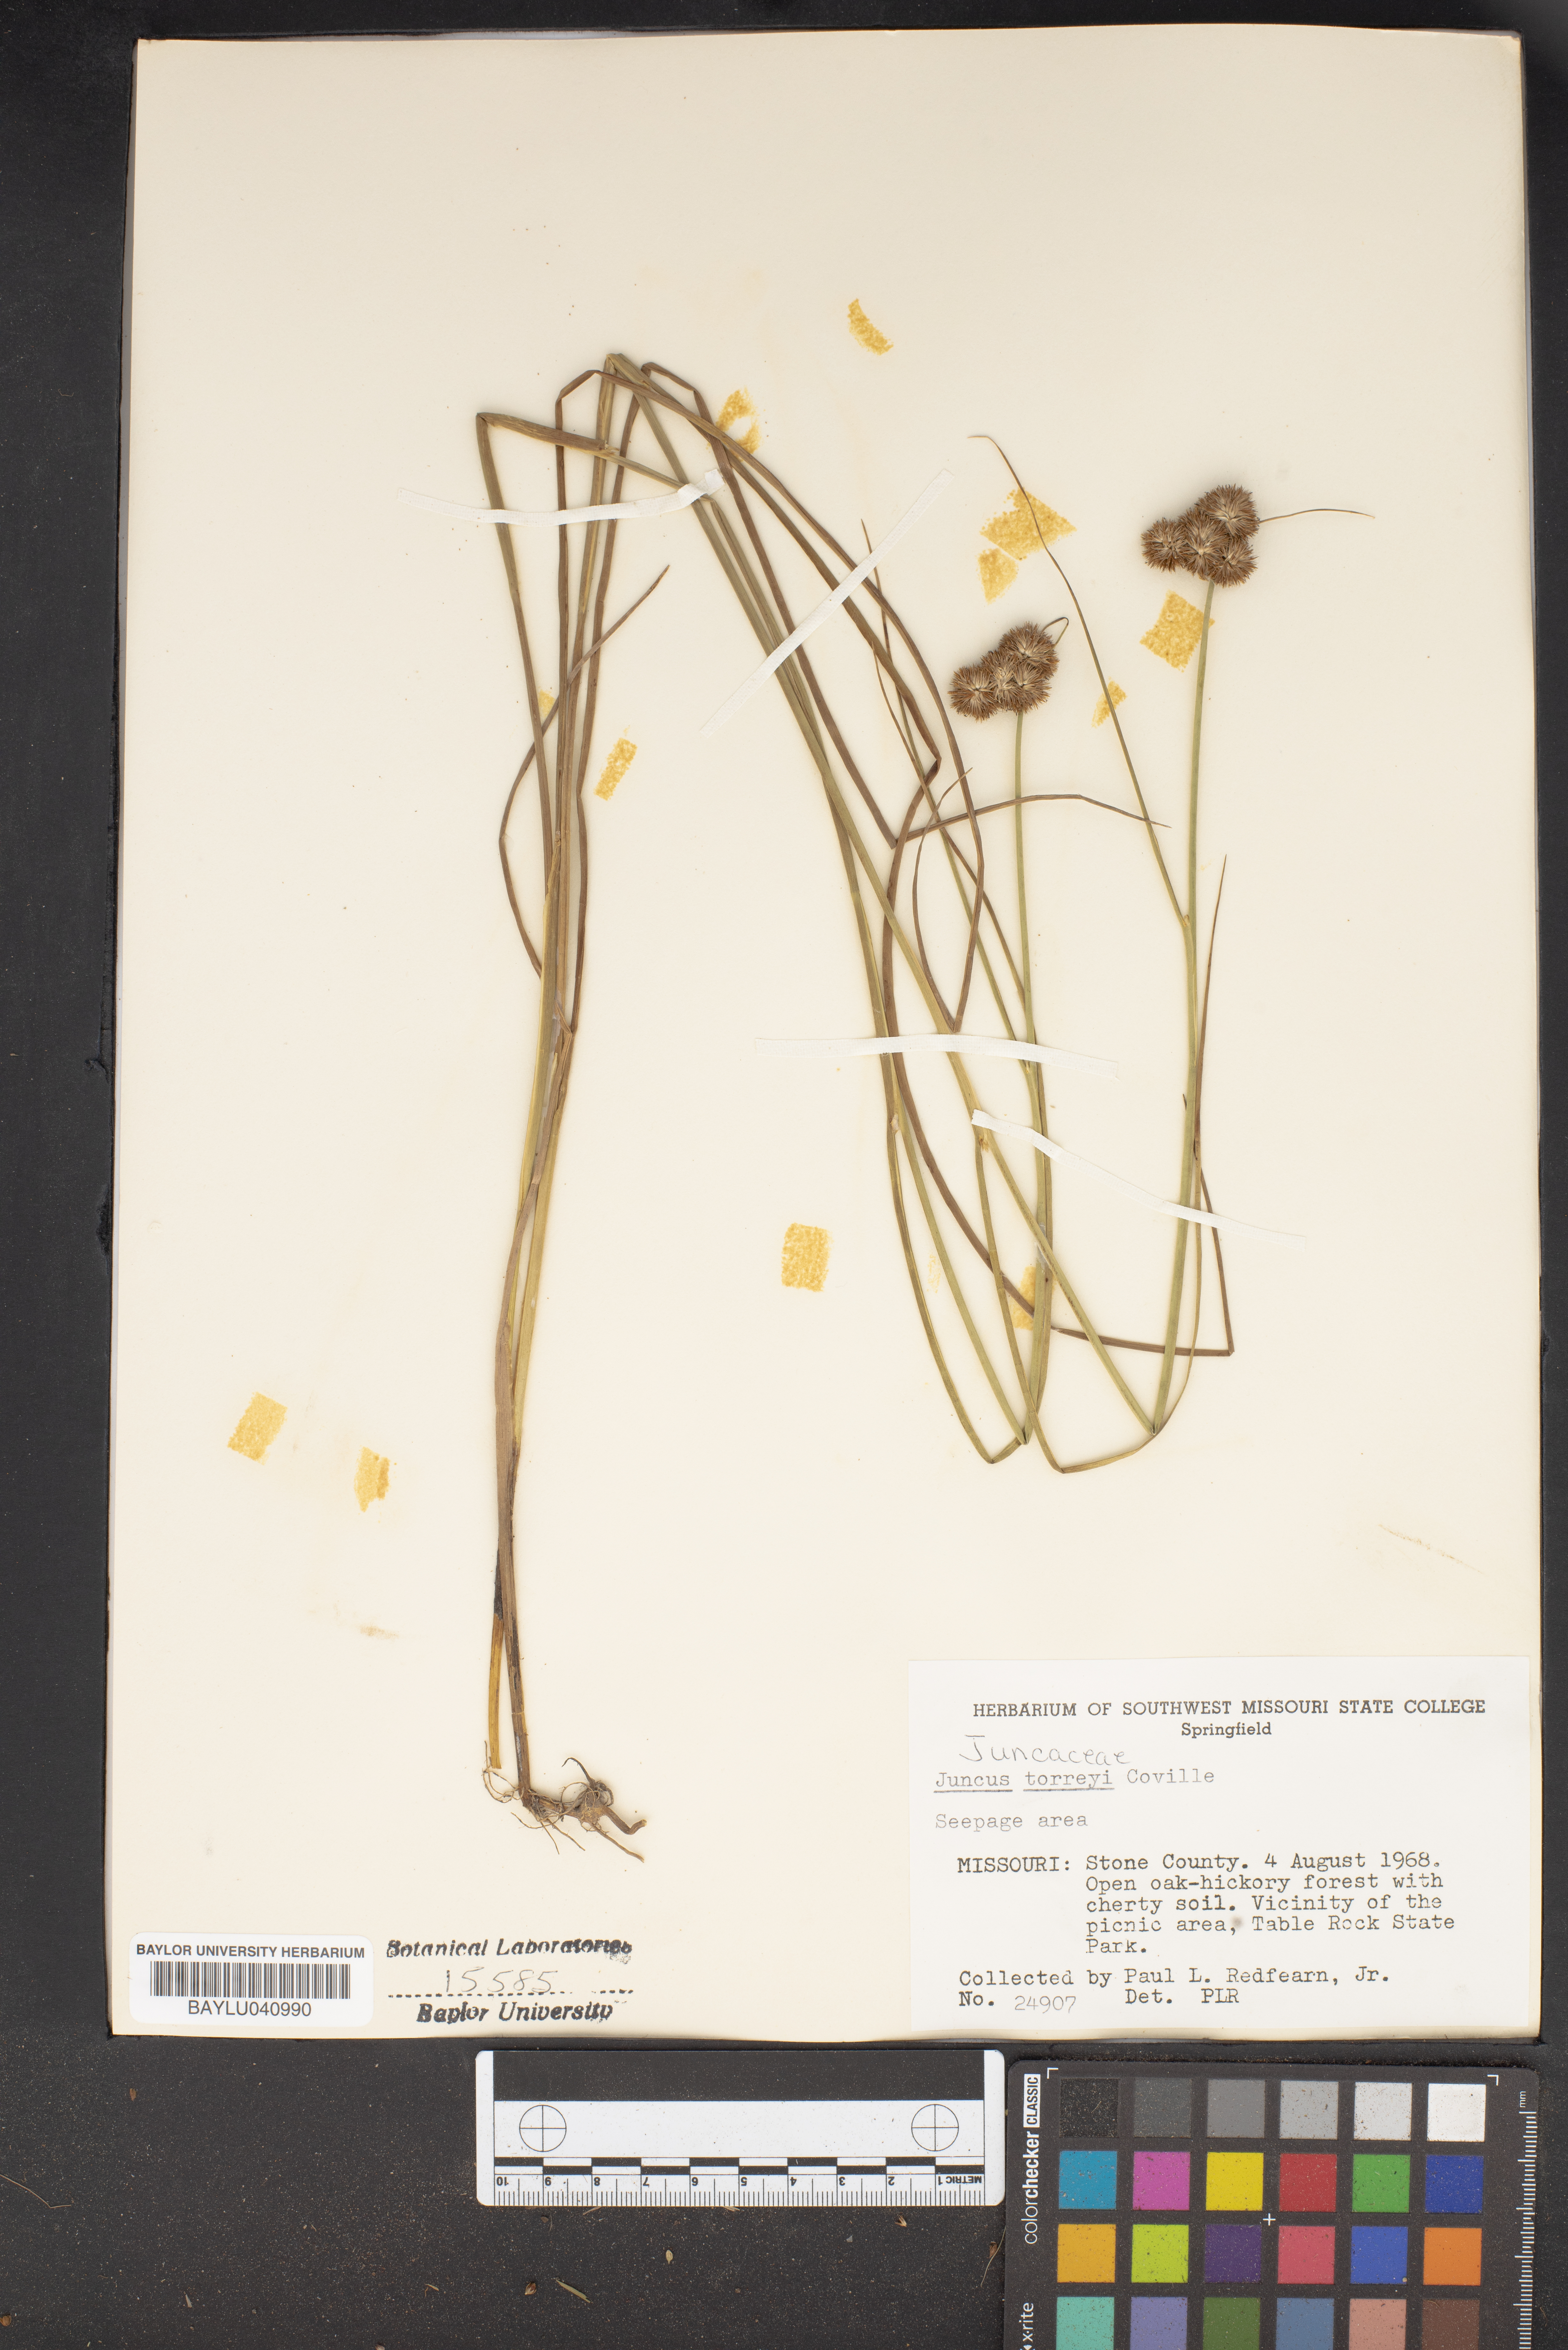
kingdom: Plantae
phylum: Tracheophyta
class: Liliopsida
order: Poales
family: Juncaceae
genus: Juncus
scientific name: Juncus torreyi
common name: Torrey's rush
